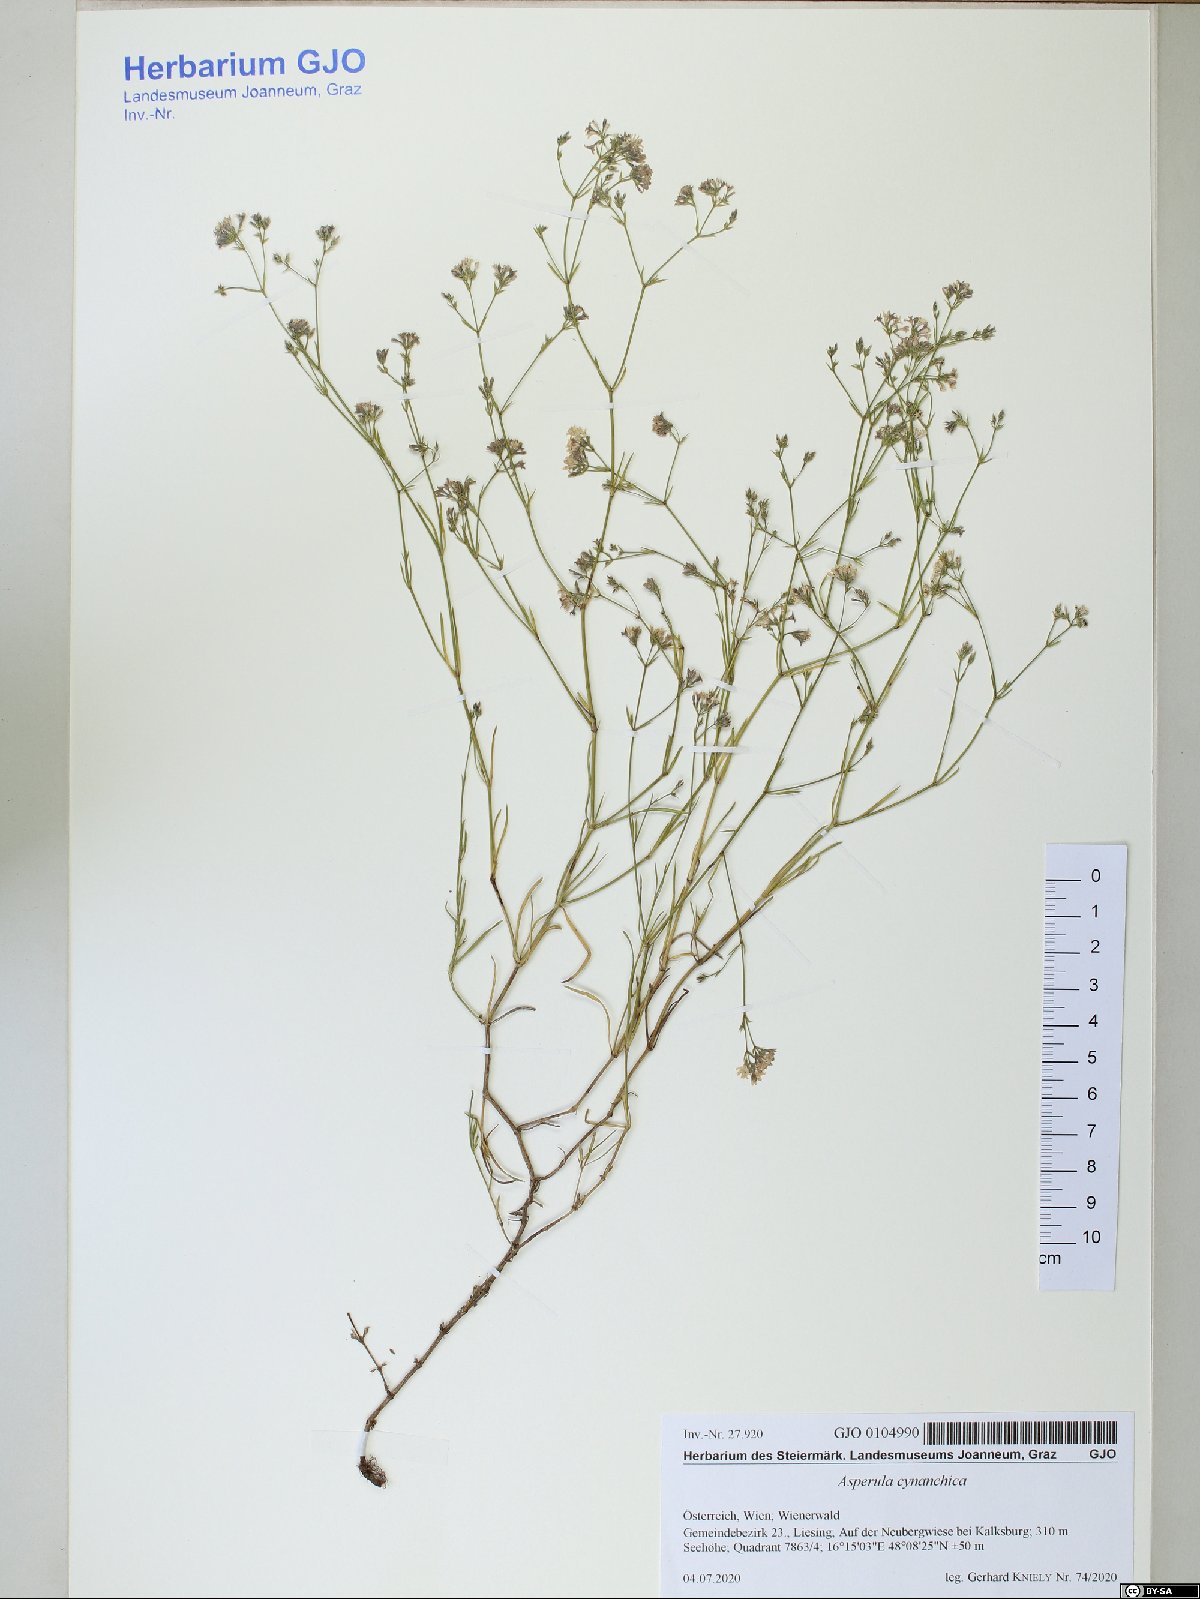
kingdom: Plantae
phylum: Tracheophyta
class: Magnoliopsida
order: Gentianales
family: Rubiaceae
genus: Cynanchica
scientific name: Cynanchica pyrenaica
